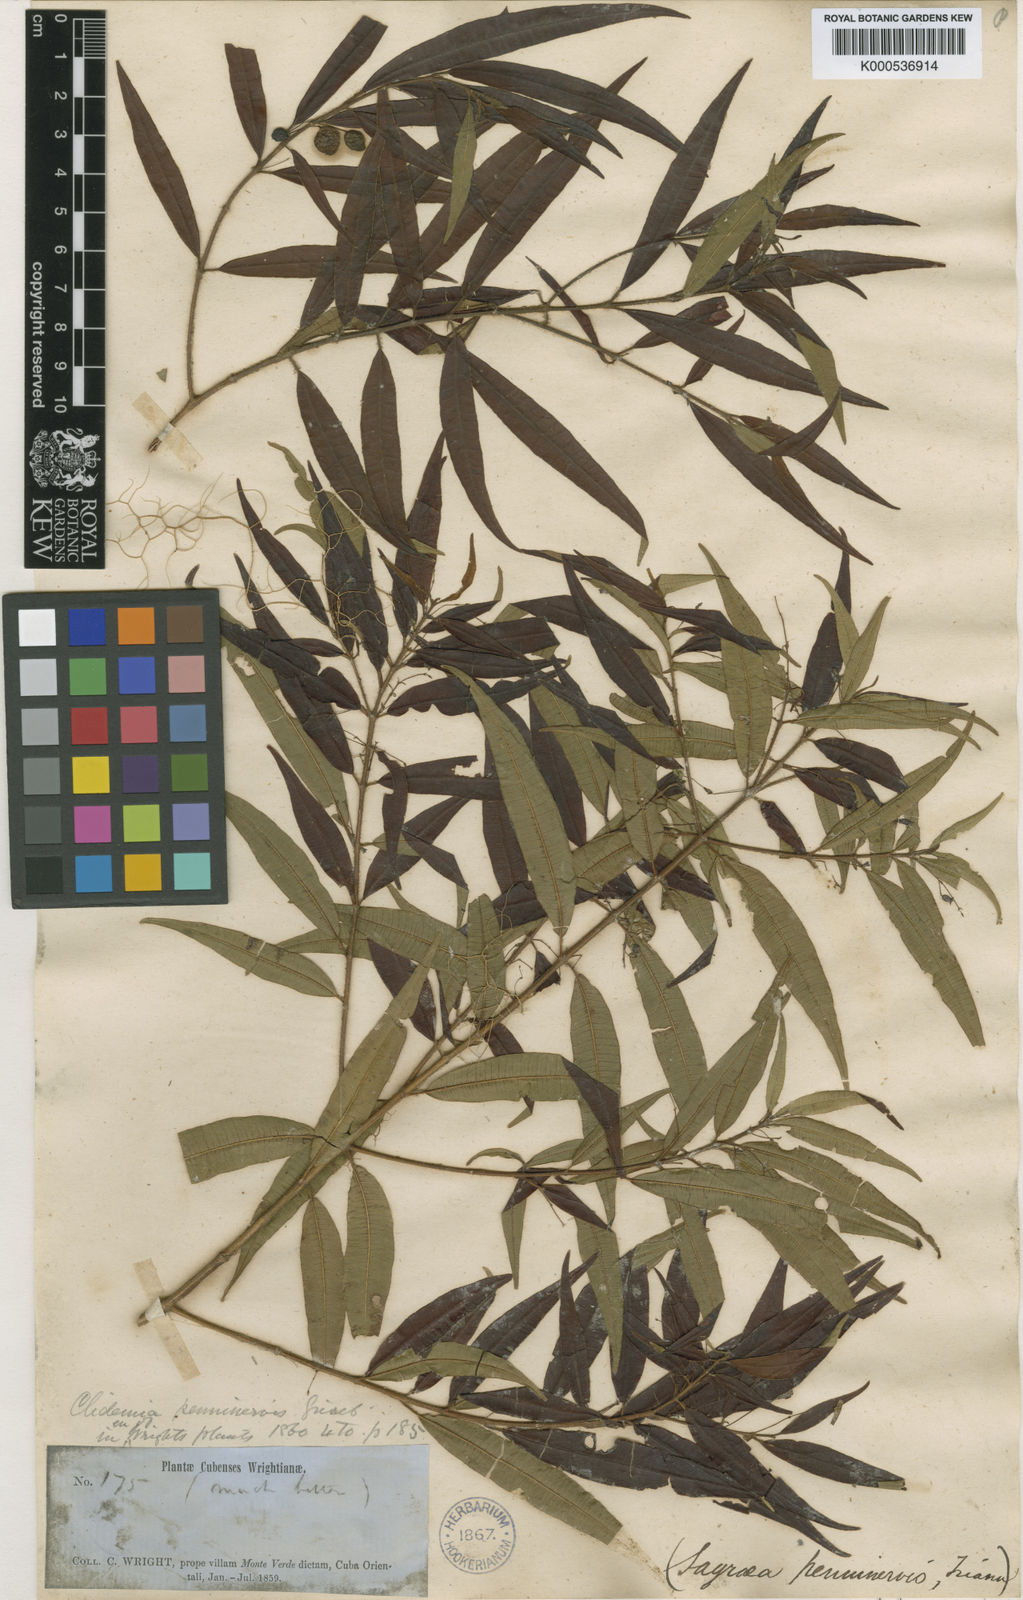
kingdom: Plantae
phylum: Tracheophyta
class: Magnoliopsida
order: Myrtales
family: Melastomataceae
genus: Miconia
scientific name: Miconia penninervis
